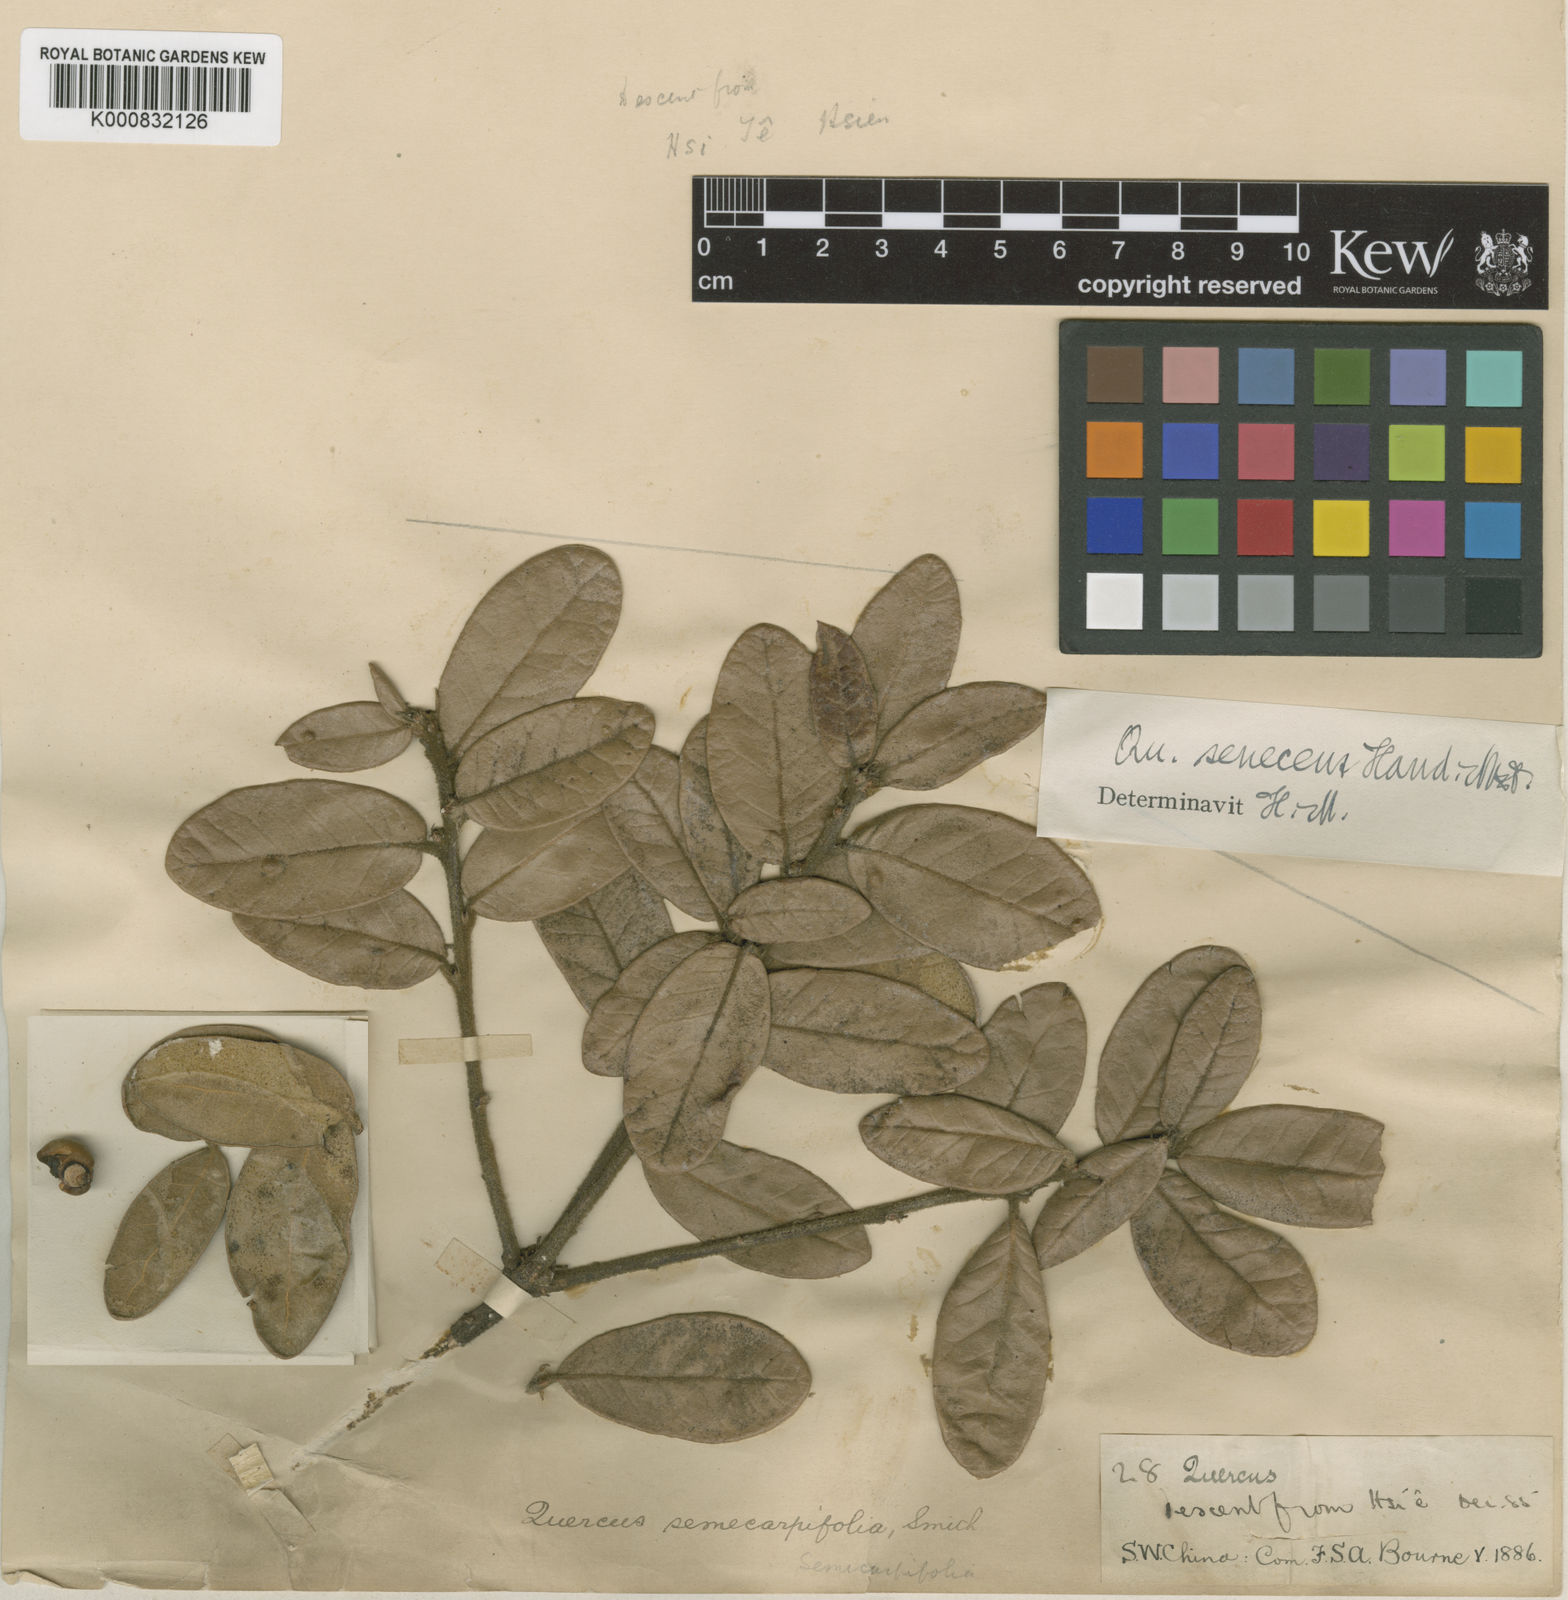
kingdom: Plantae
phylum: Tracheophyta
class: Magnoliopsida
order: Fagales
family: Fagaceae
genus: Quercus
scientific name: Quercus senescens
